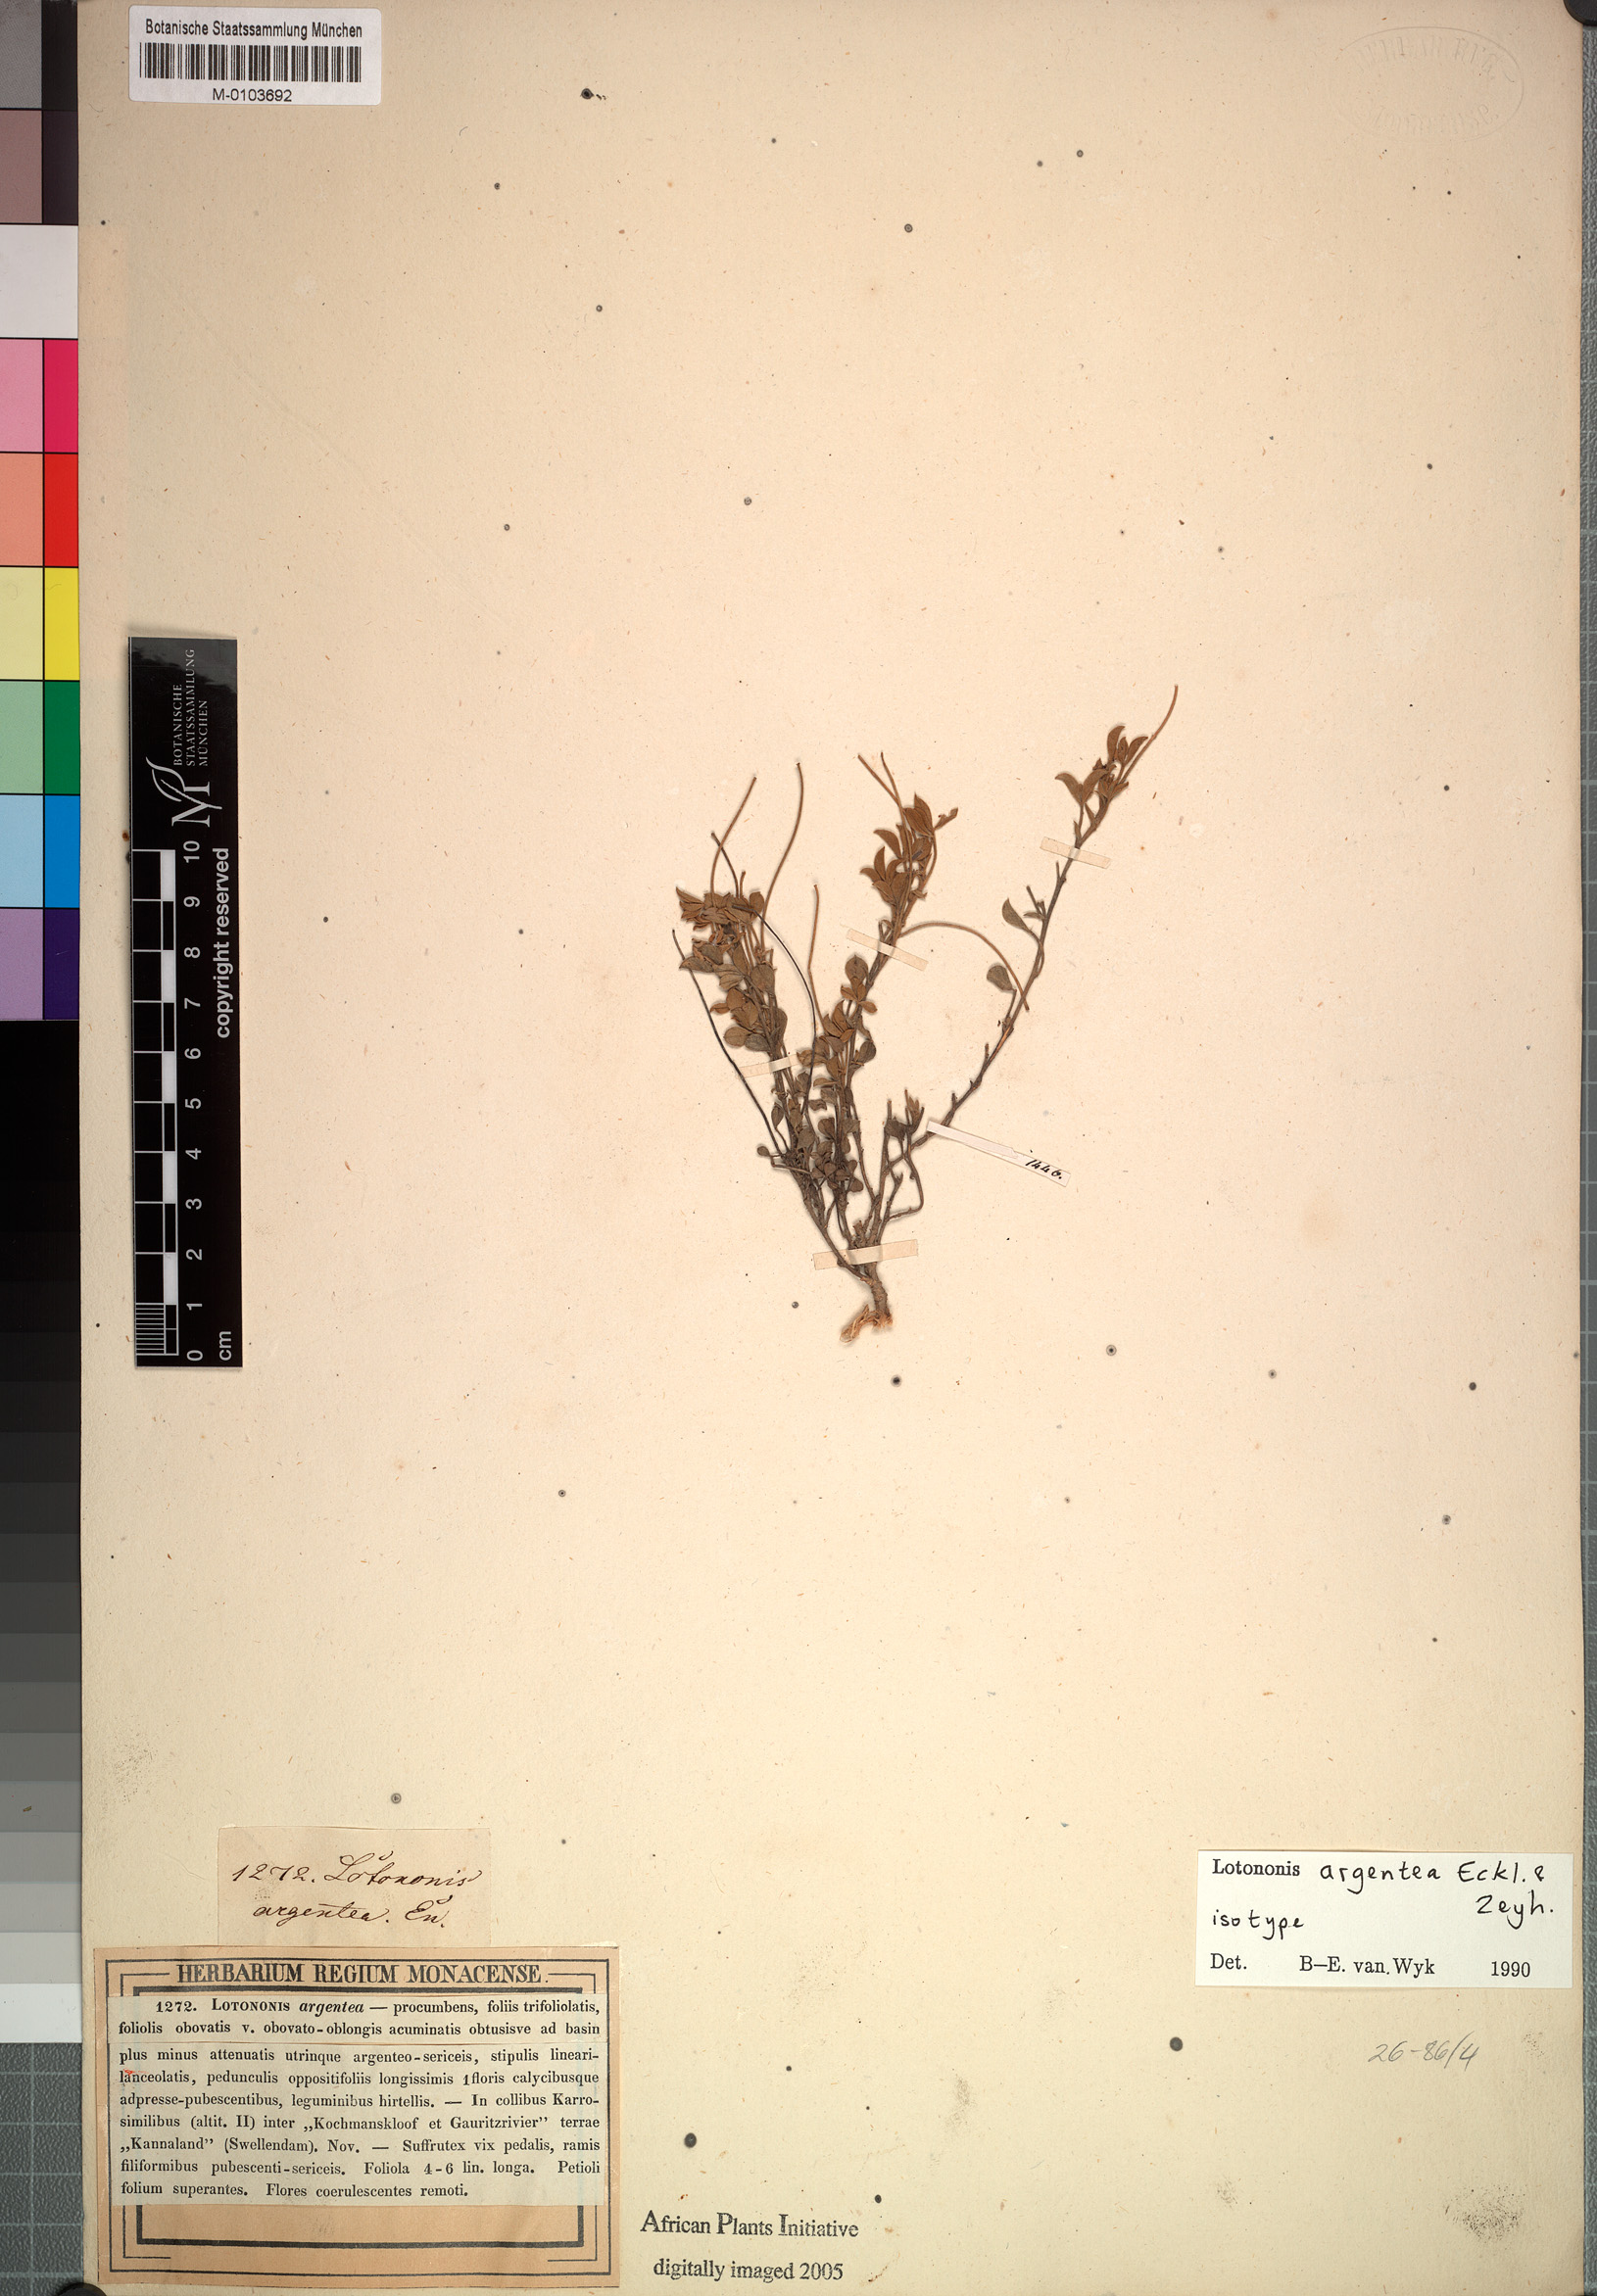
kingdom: Plantae
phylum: Tracheophyta
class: Magnoliopsida
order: Fabales
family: Fabaceae
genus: Lotononis
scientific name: Lotononis argentea
